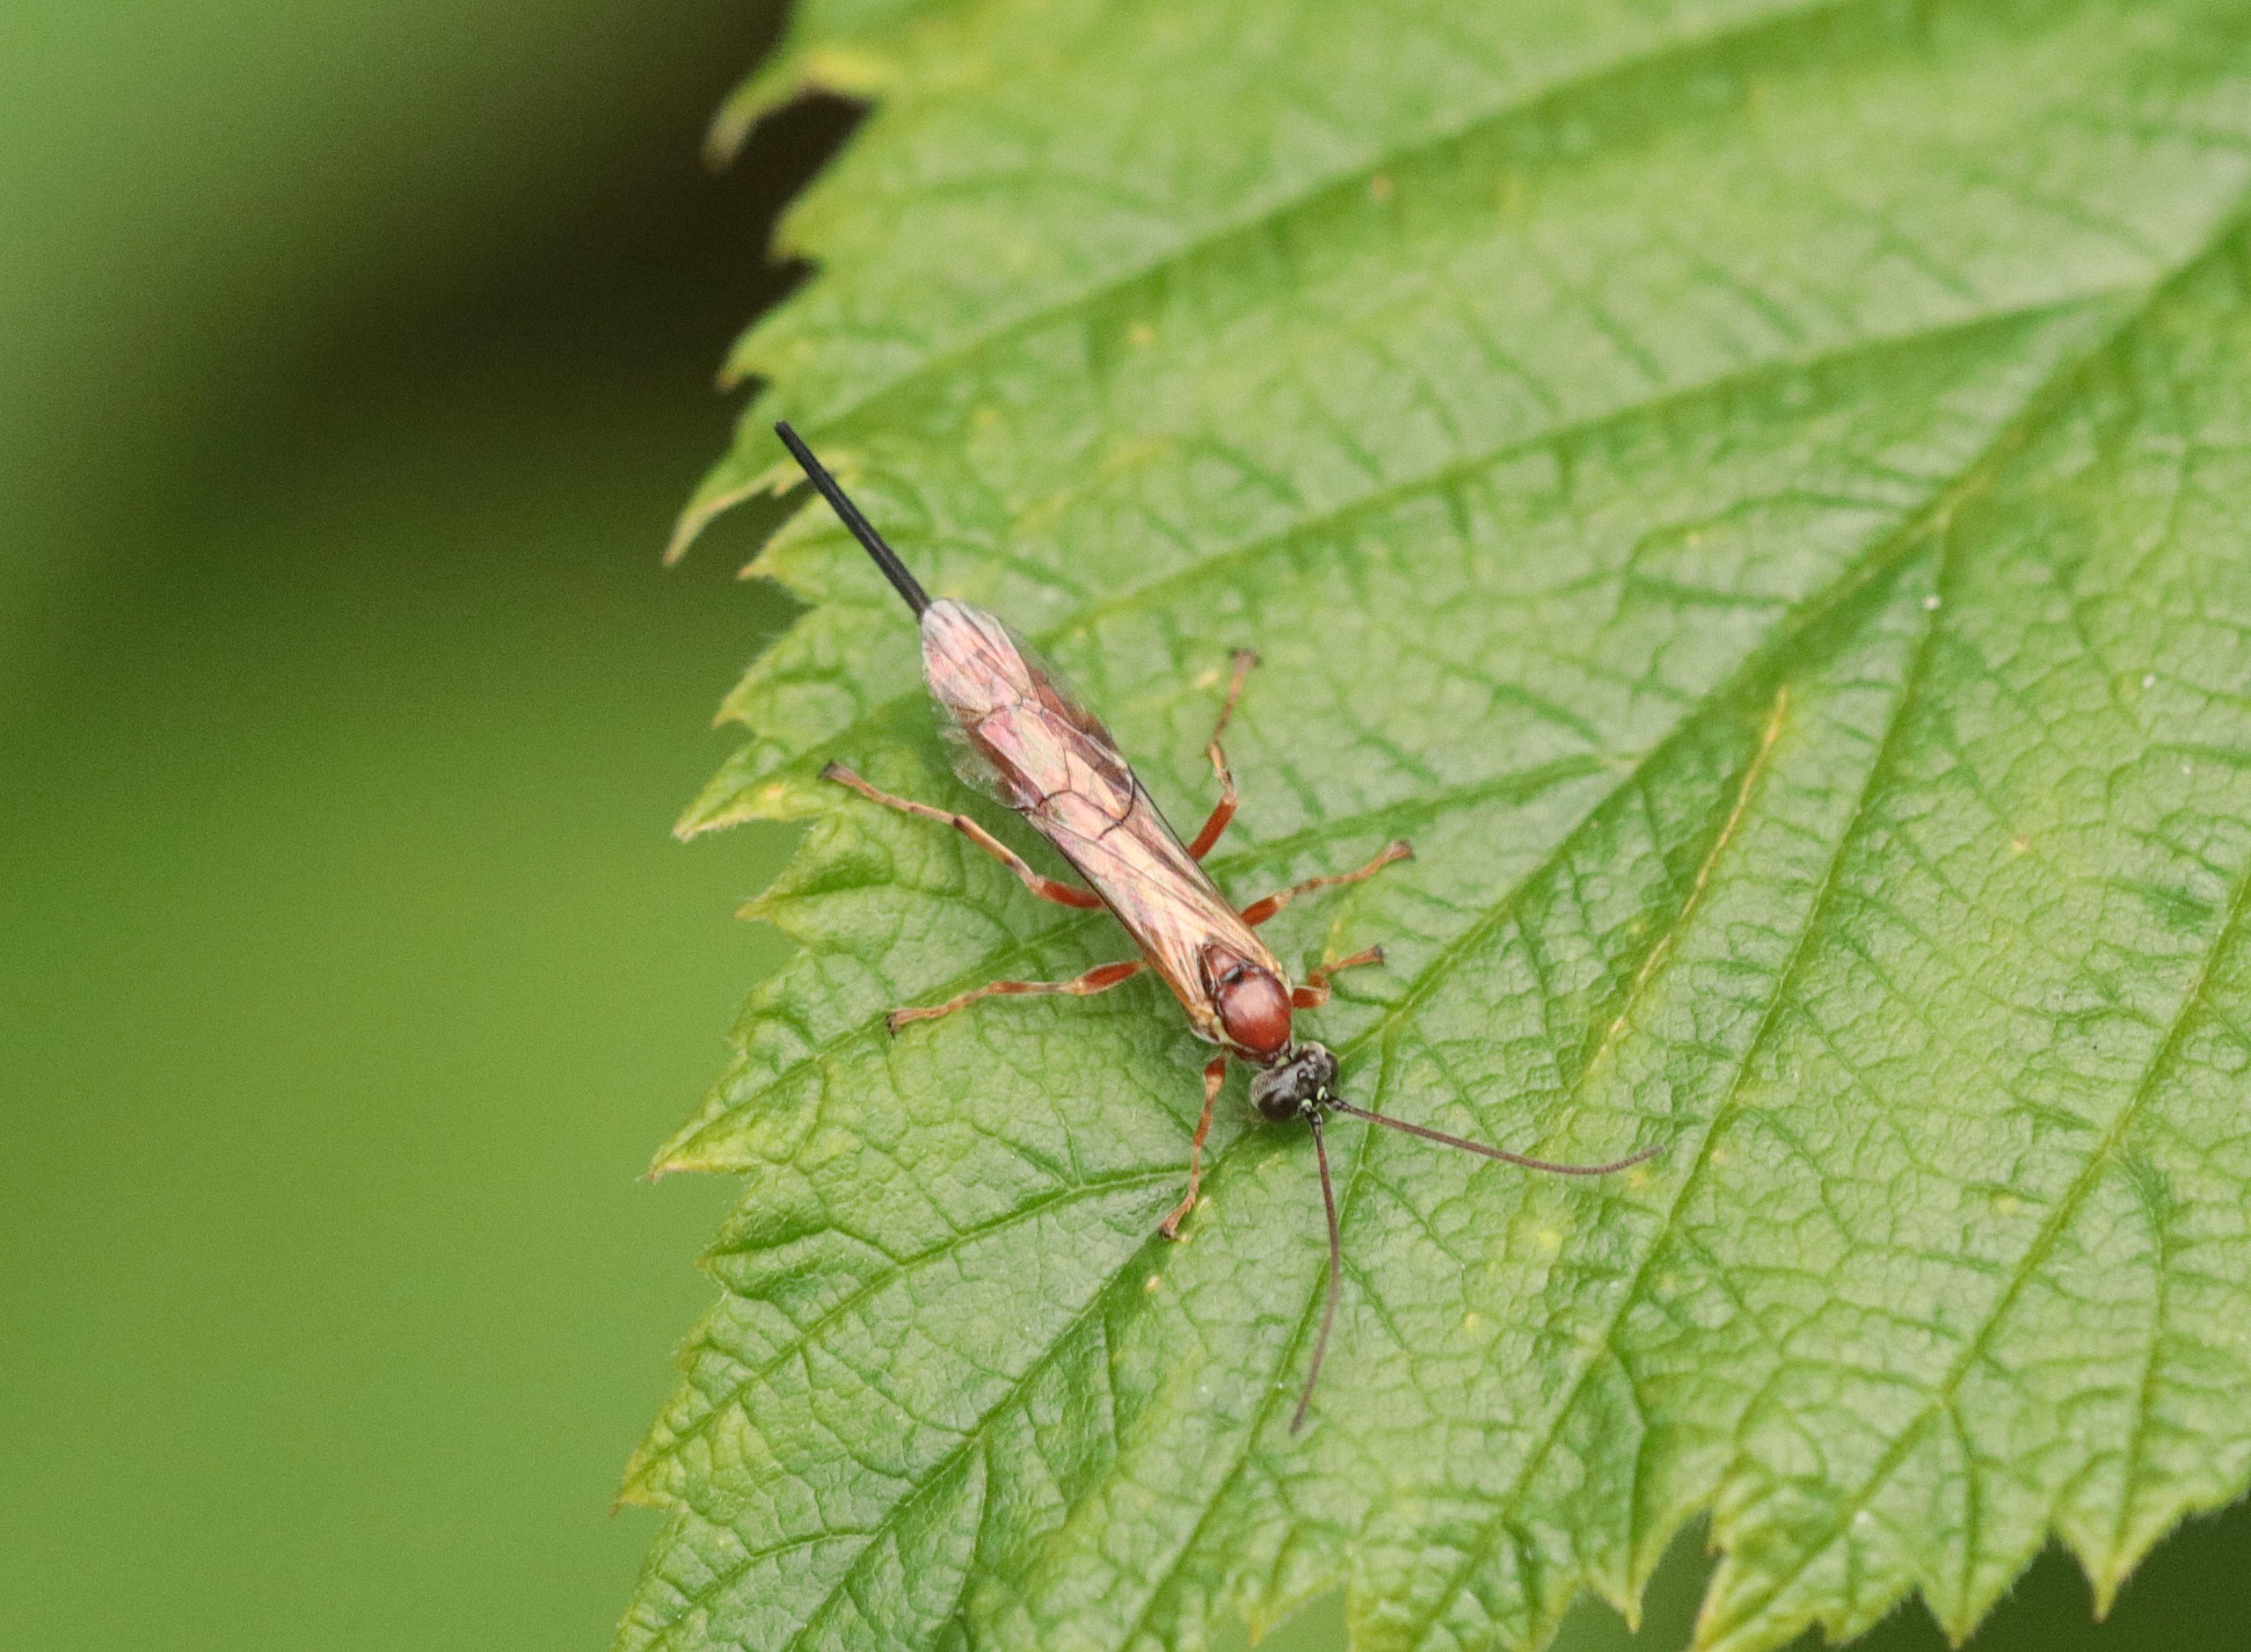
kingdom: Animalia
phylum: Arthropoda
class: Insecta
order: Hymenoptera
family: Ichneumonidae
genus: Fredegunda
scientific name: Fredegunda diluta
